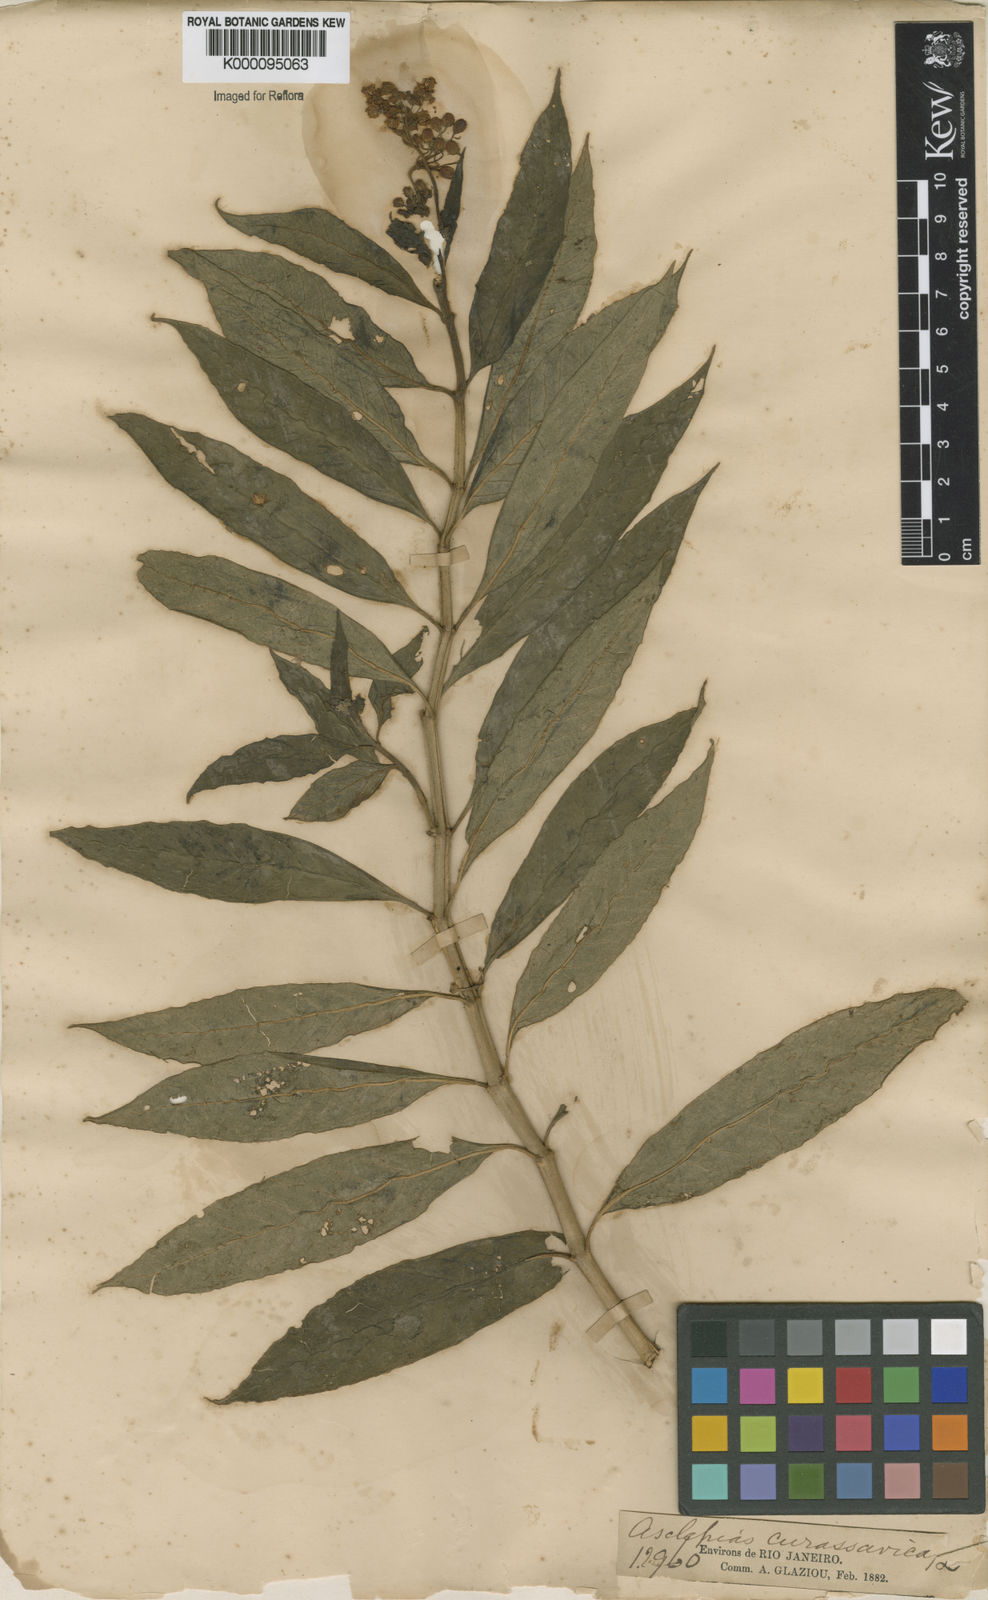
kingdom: Plantae
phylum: Tracheophyta
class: Magnoliopsida
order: Gentianales
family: Apocynaceae
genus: Asclepias
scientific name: Asclepias curassavica
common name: Bloodflower
